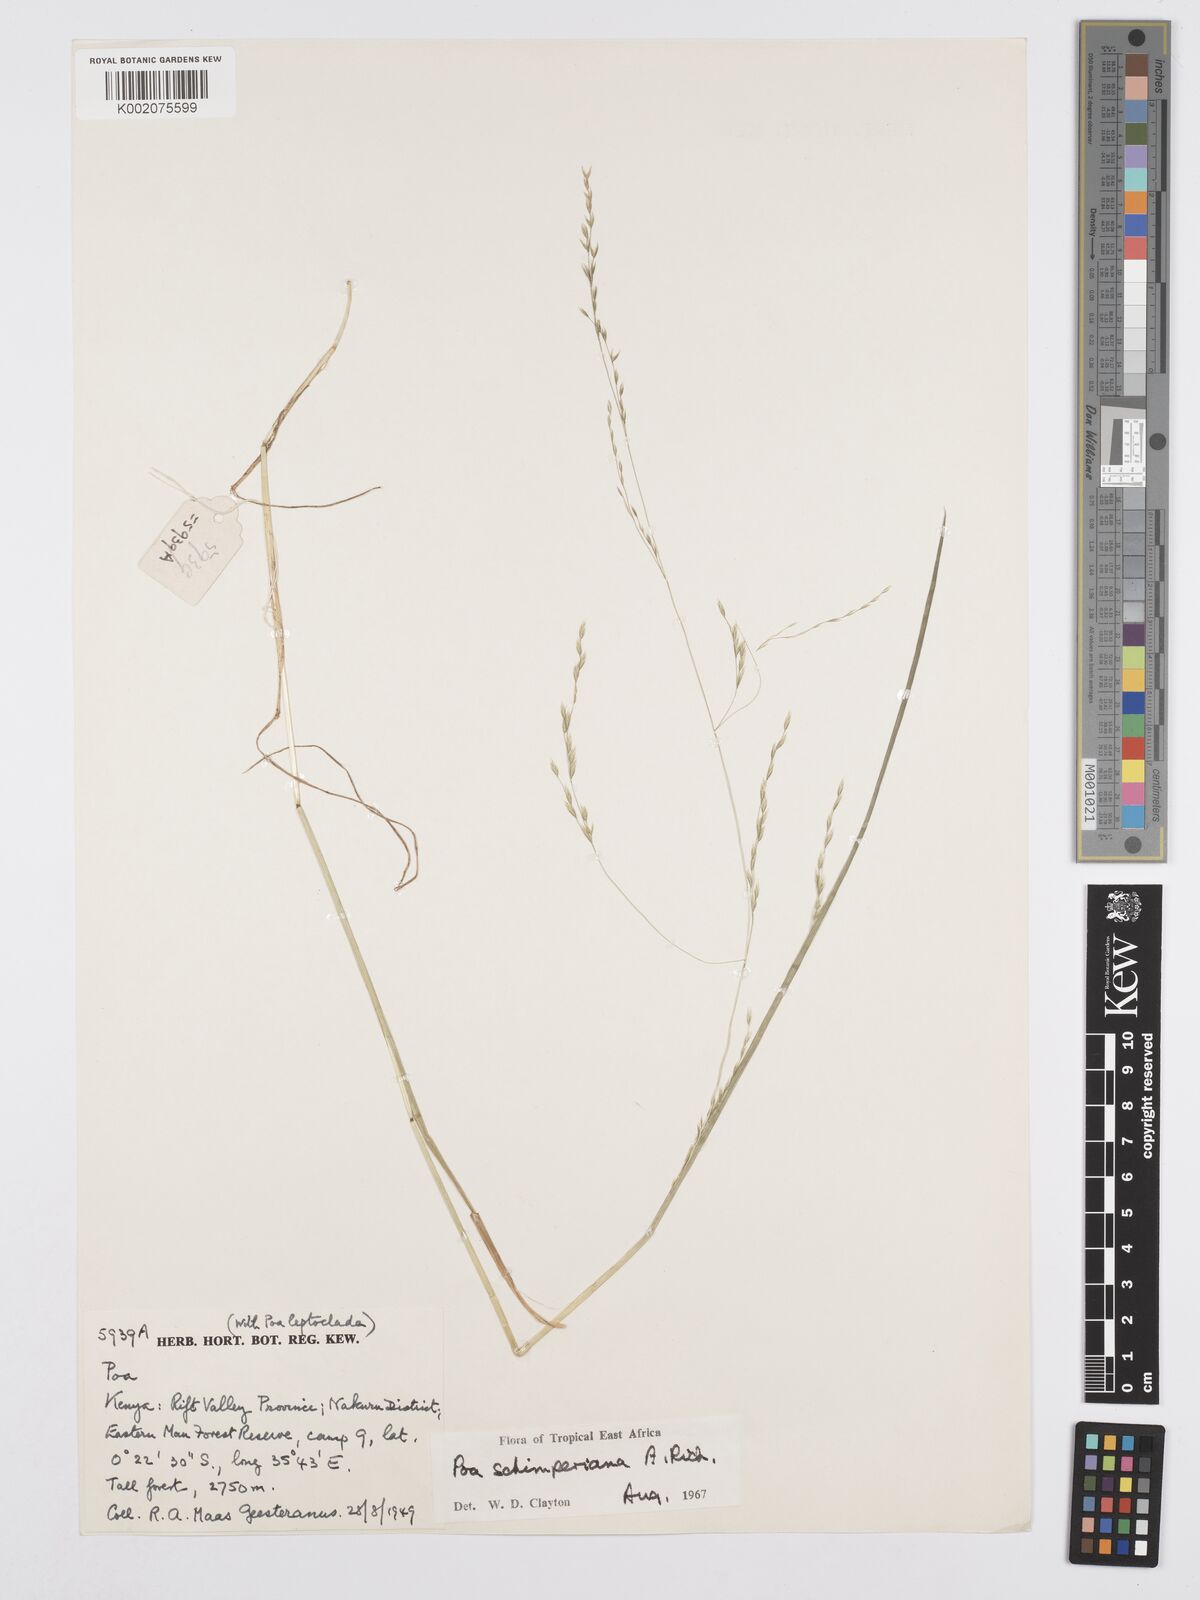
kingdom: Plantae
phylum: Tracheophyta
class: Liliopsida
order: Poales
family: Poaceae
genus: Poa
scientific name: Poa schimperiana
